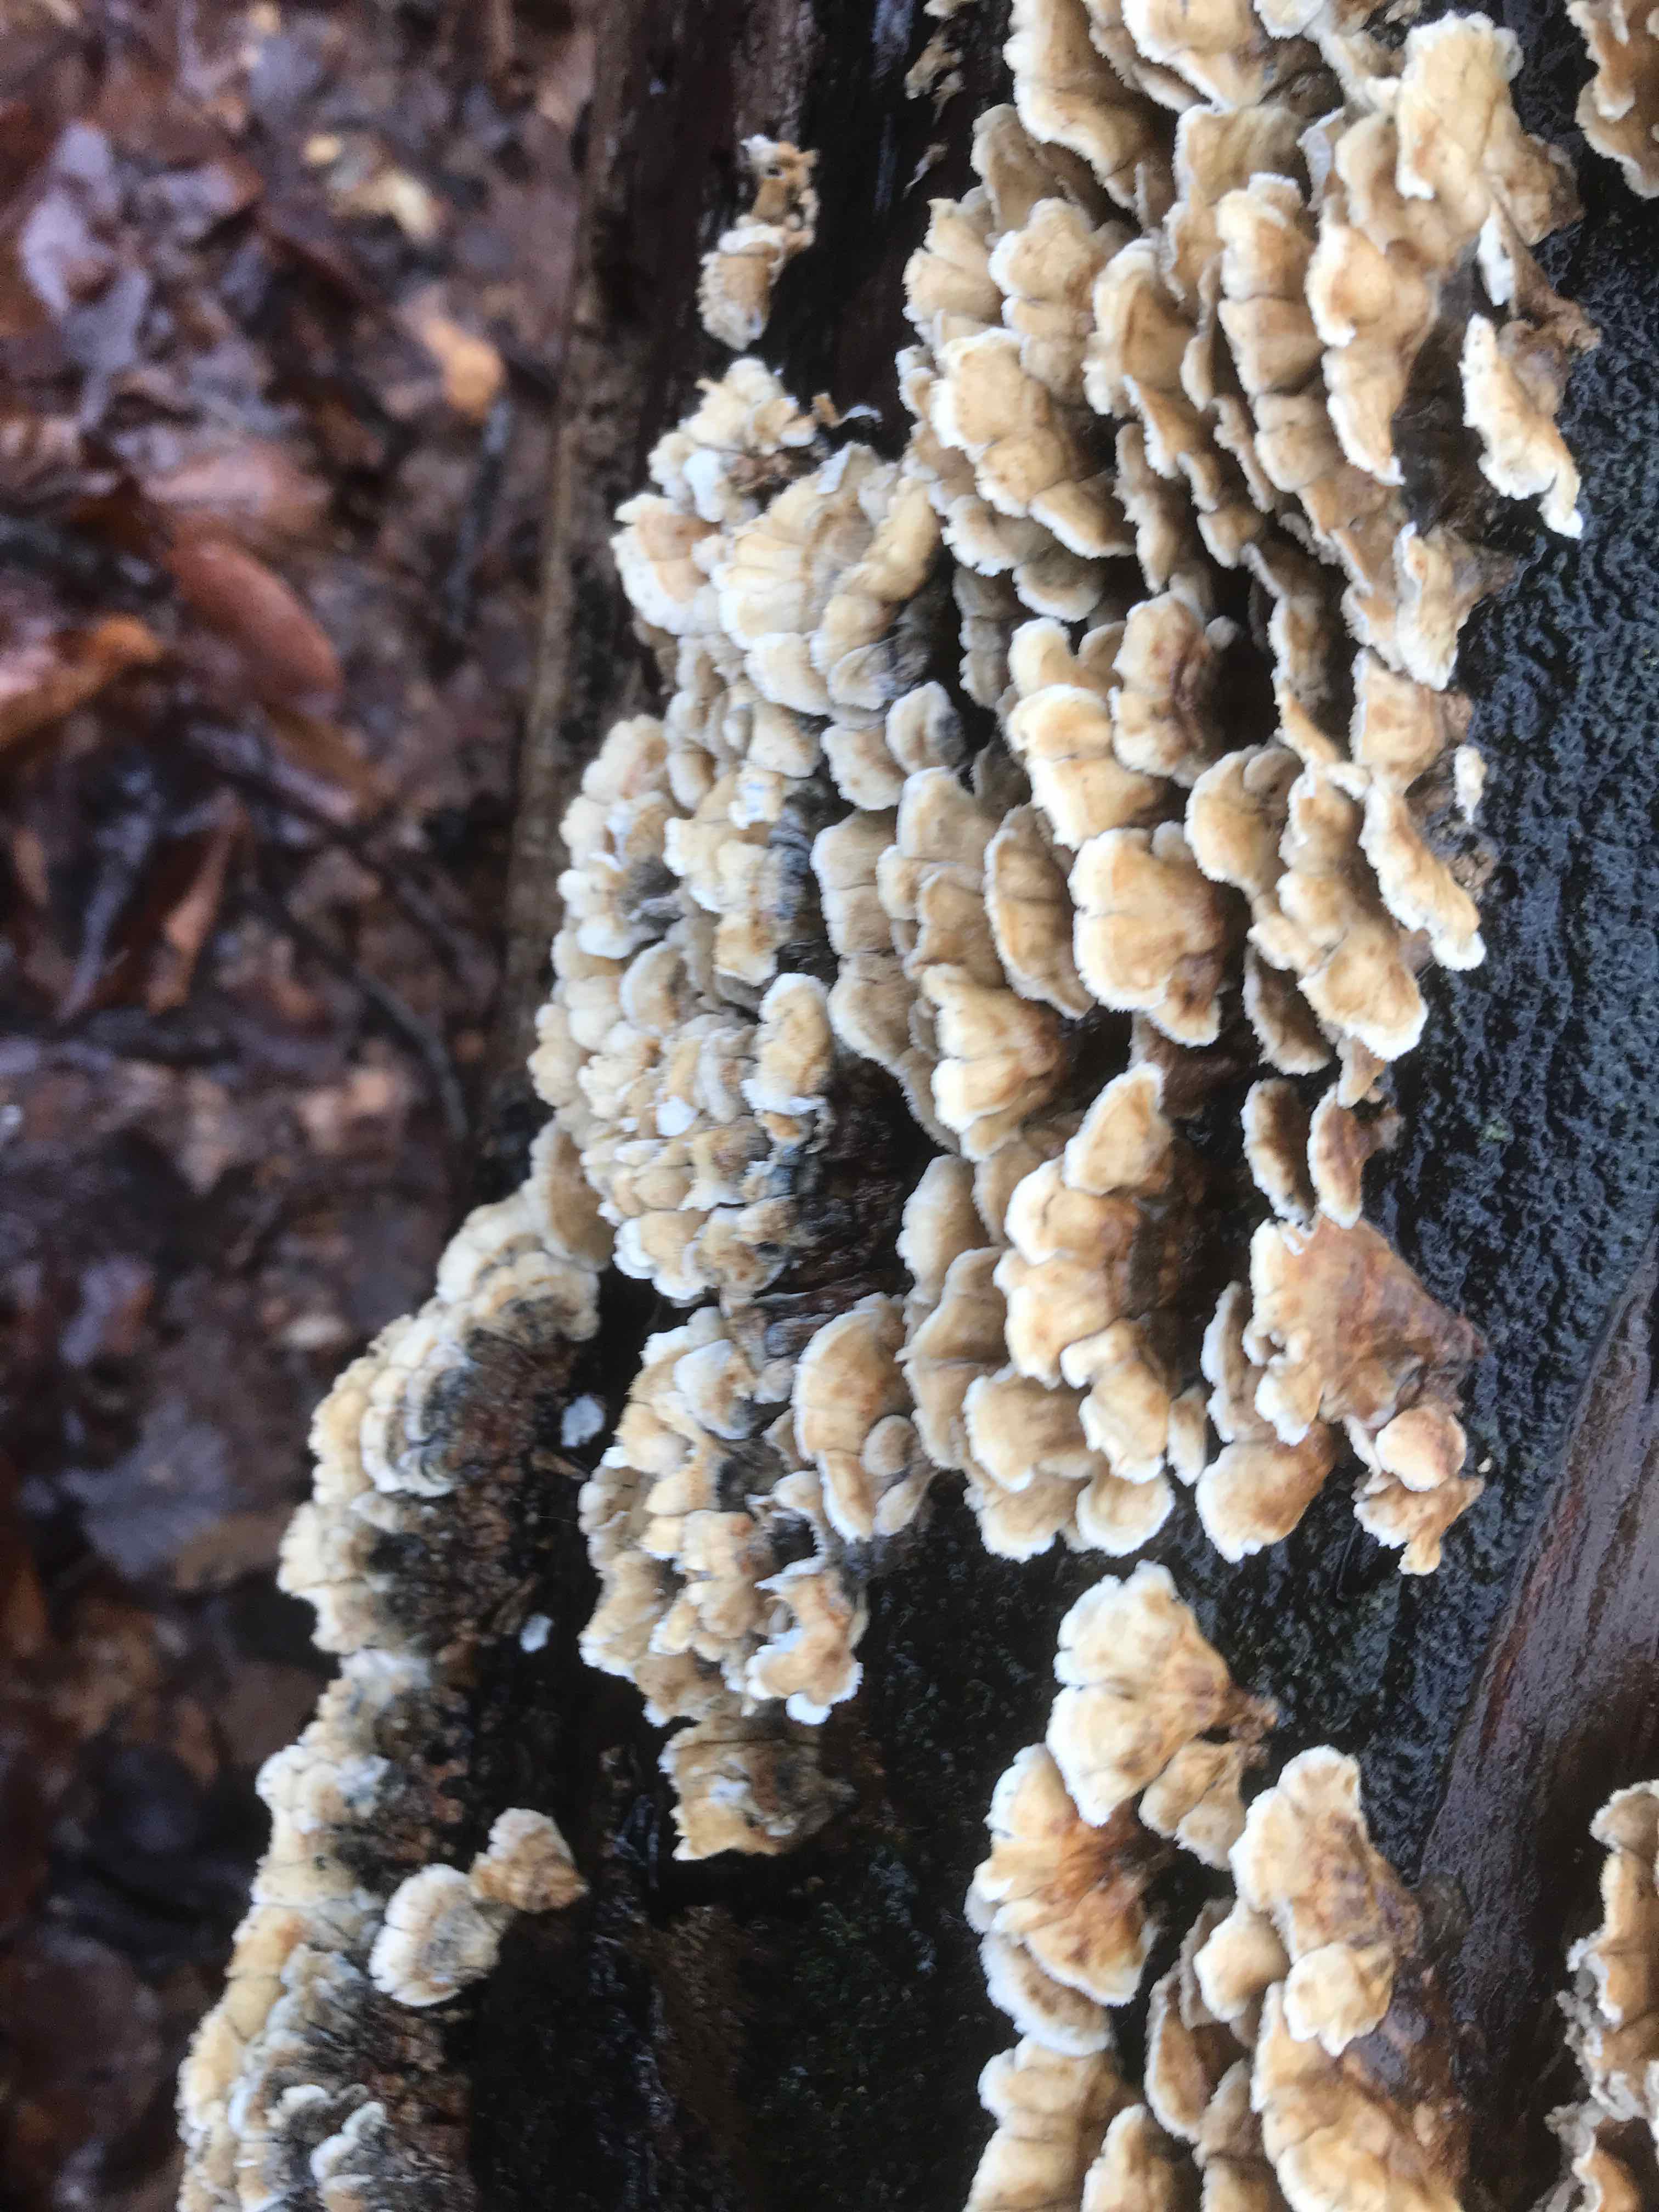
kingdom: Fungi
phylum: Basidiomycota
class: Agaricomycetes
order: Amylocorticiales
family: Amylocorticiaceae
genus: Plicaturopsis
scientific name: Plicaturopsis crispa
